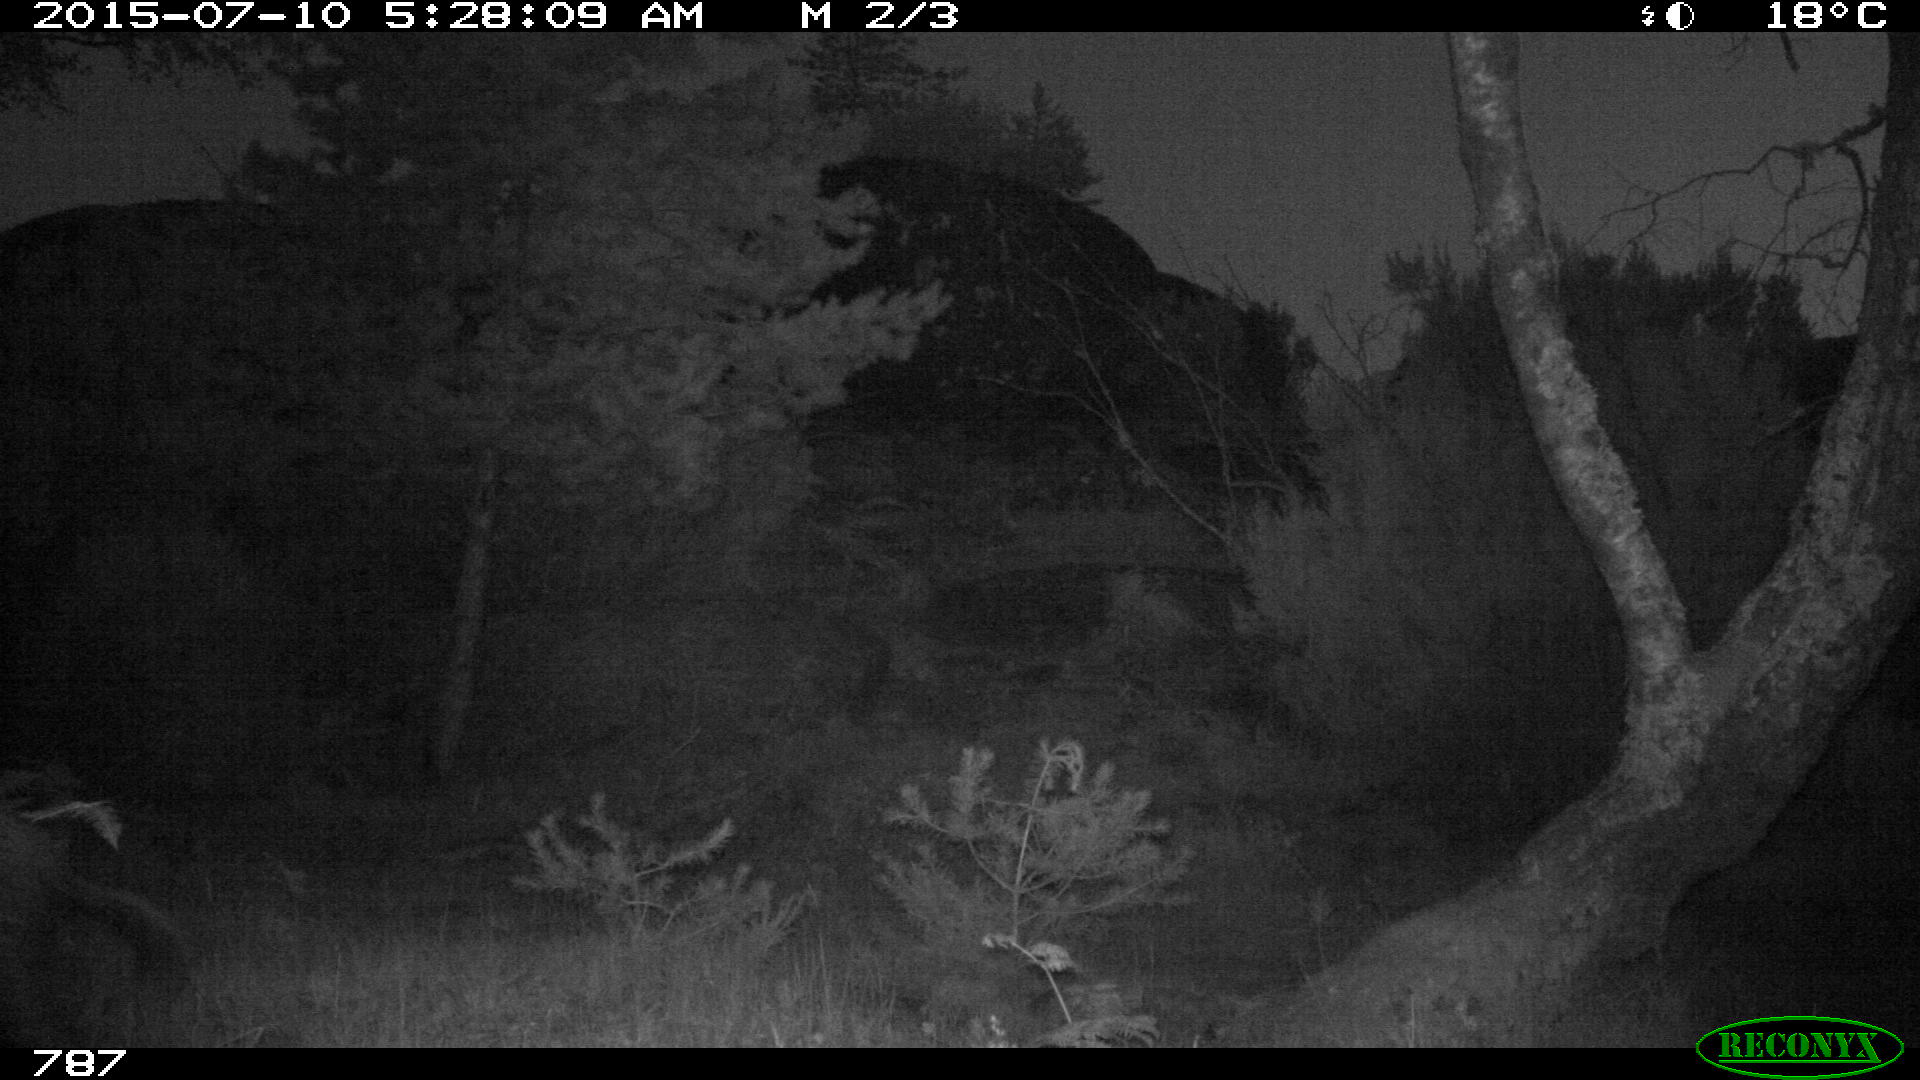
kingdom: Animalia
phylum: Chordata
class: Mammalia
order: Artiodactyla
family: Suidae
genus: Sus
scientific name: Sus scrofa
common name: Wild boar
